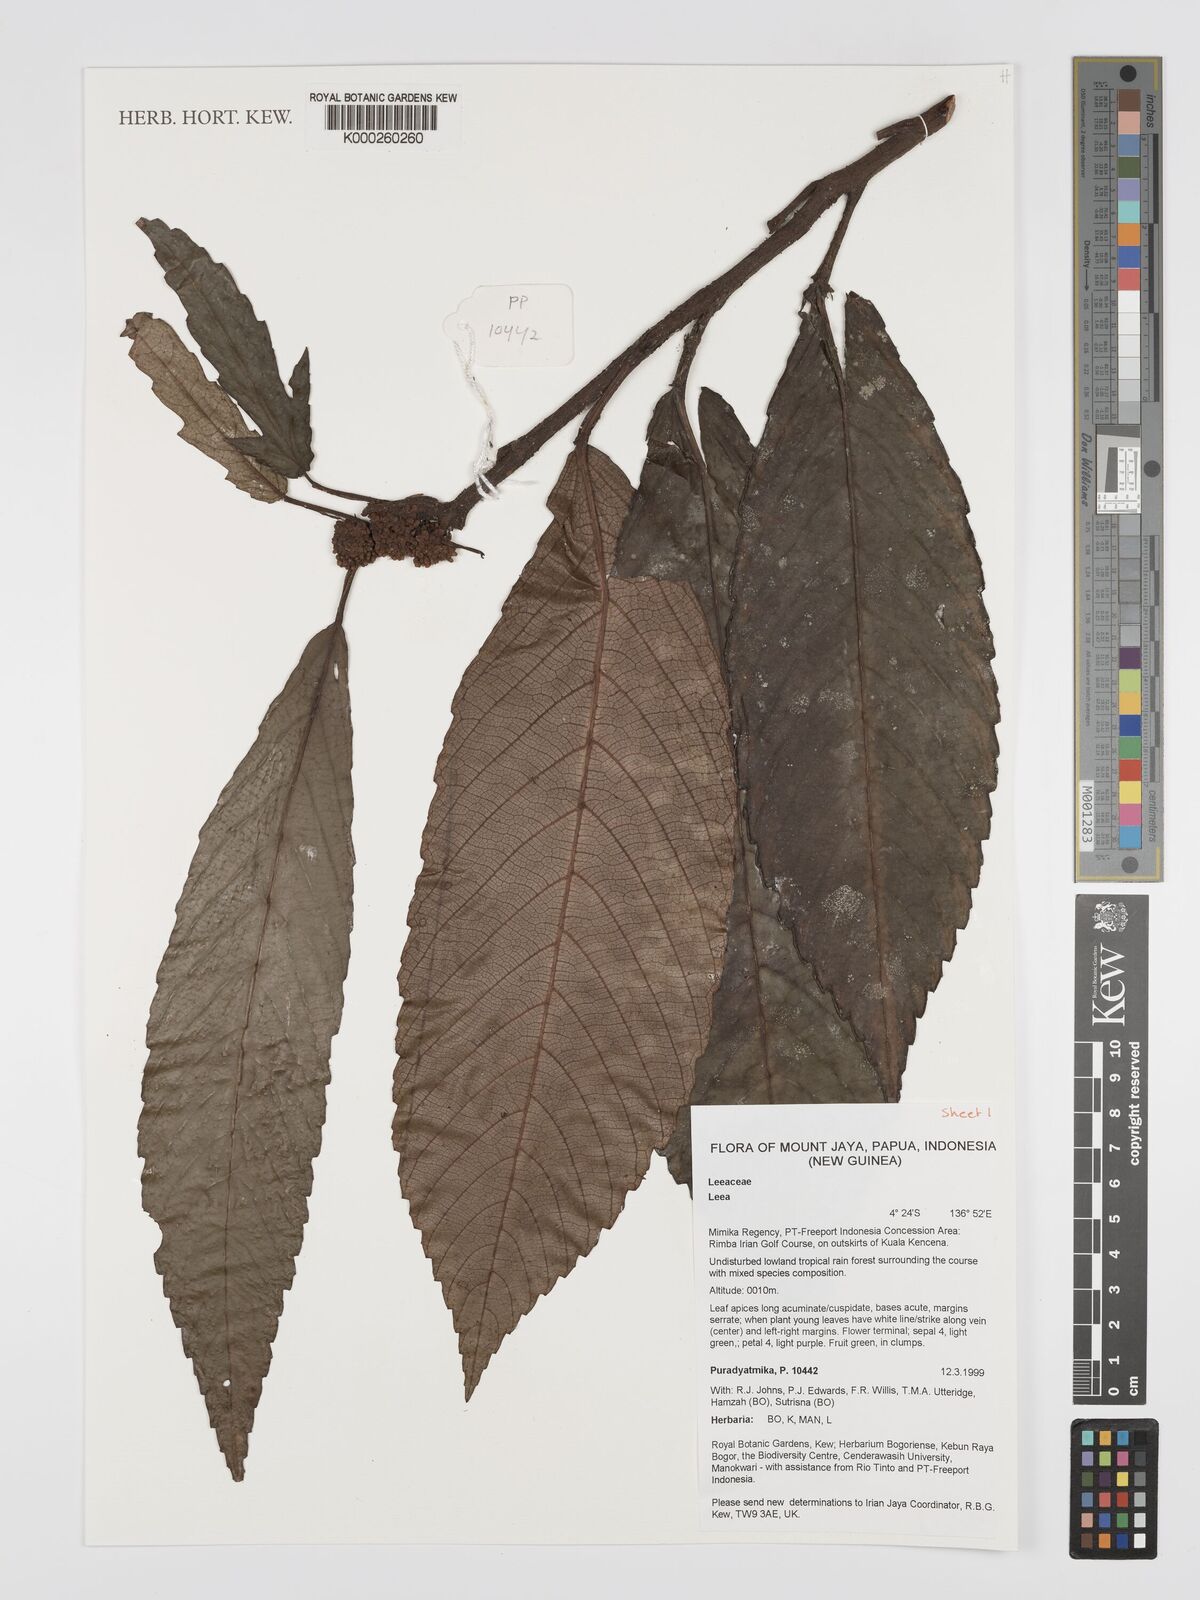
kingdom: Plantae
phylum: Tracheophyta
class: Magnoliopsida
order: Vitales
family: Vitaceae
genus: Leea
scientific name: Leea
